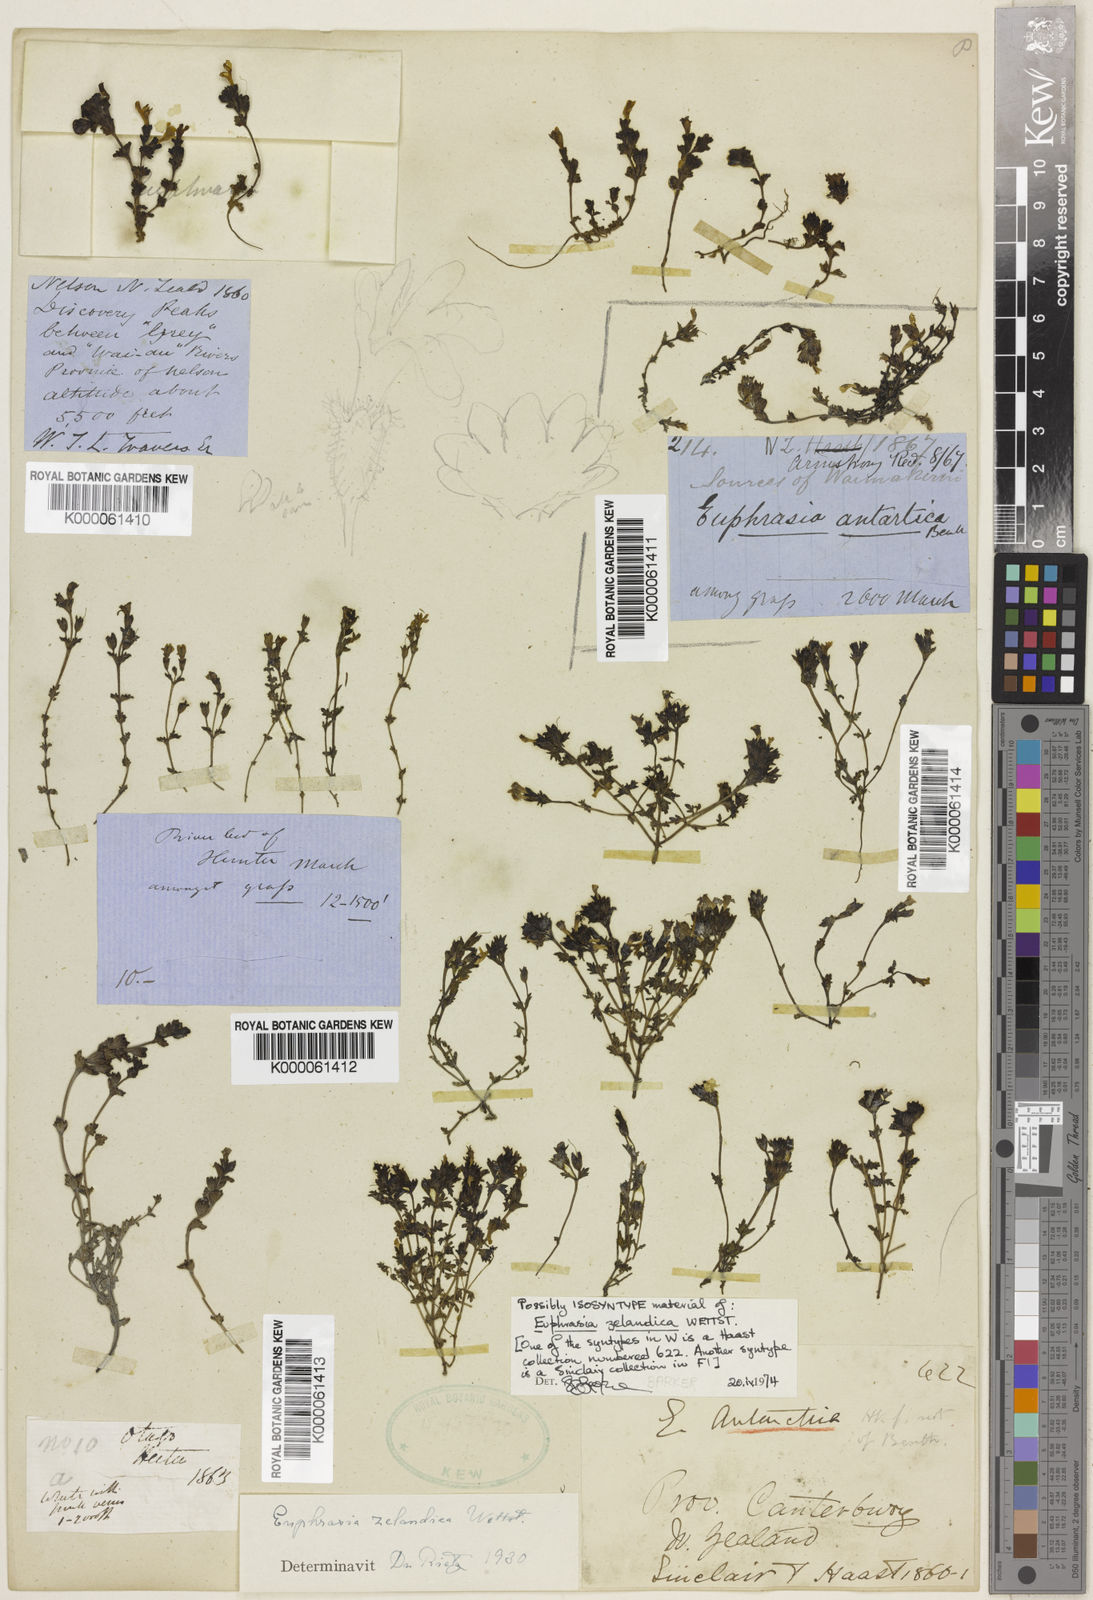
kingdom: Plantae
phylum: Tracheophyta
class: Magnoliopsida
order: Lamiales
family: Orobanchaceae
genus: Euphrasia
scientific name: Euphrasia zelandica
